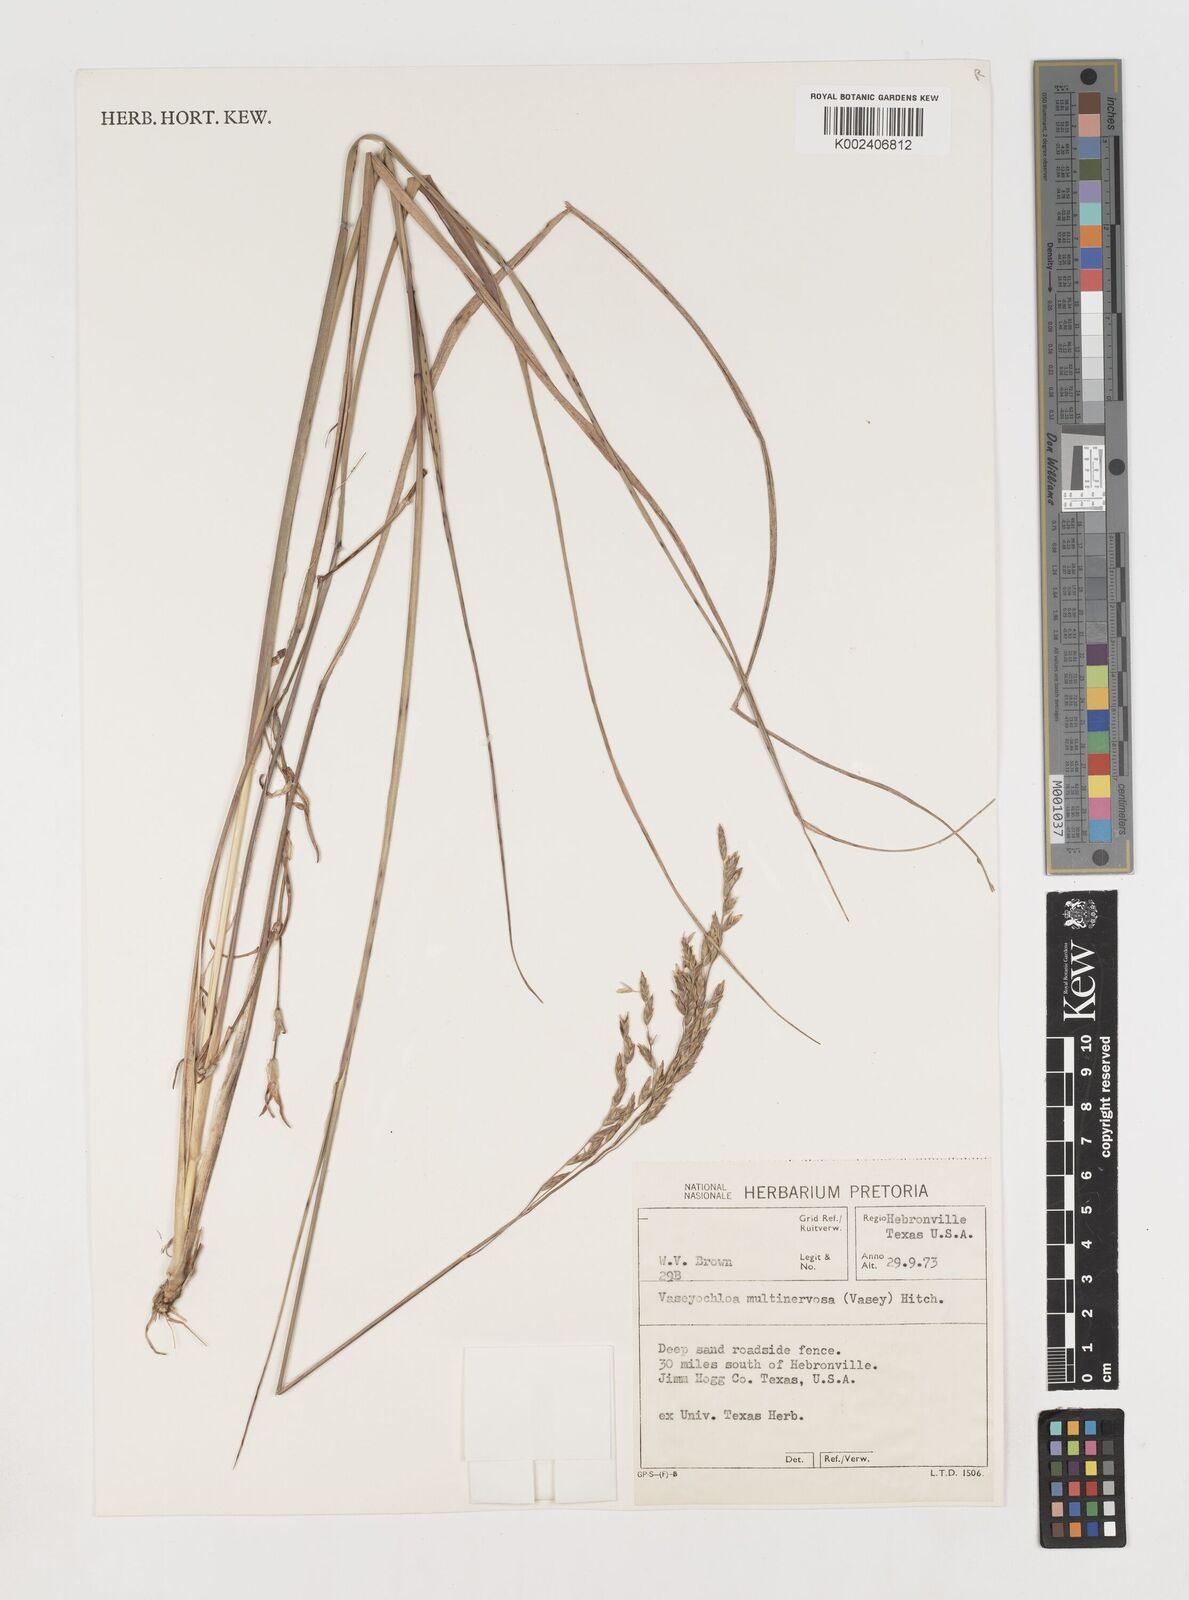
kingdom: Plantae
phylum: Tracheophyta
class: Liliopsida
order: Poales
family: Poaceae
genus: Vaseyochloa
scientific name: Vaseyochloa multinervosa
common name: Texas grass
